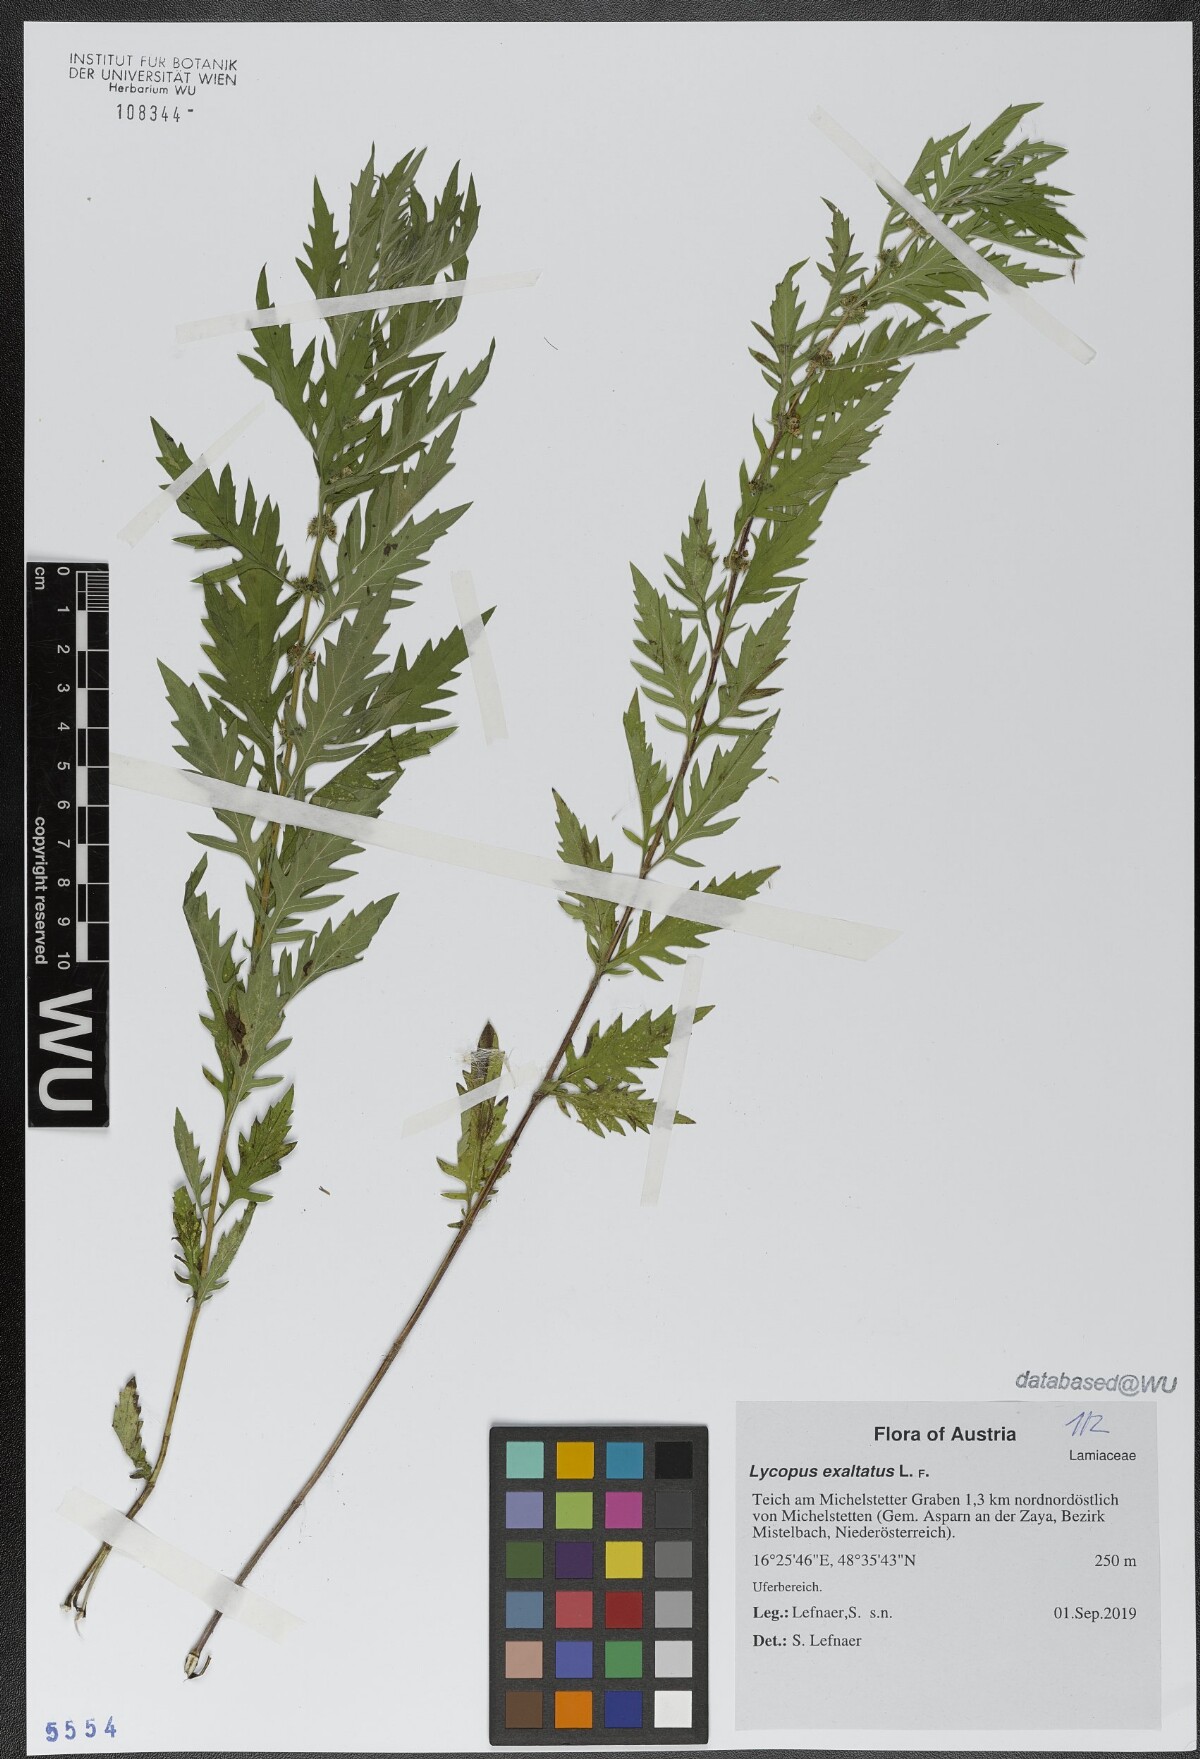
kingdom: Plantae
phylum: Tracheophyta
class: Magnoliopsida
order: Lamiales
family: Lamiaceae
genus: Lycopus
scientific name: Lycopus exaltatus
